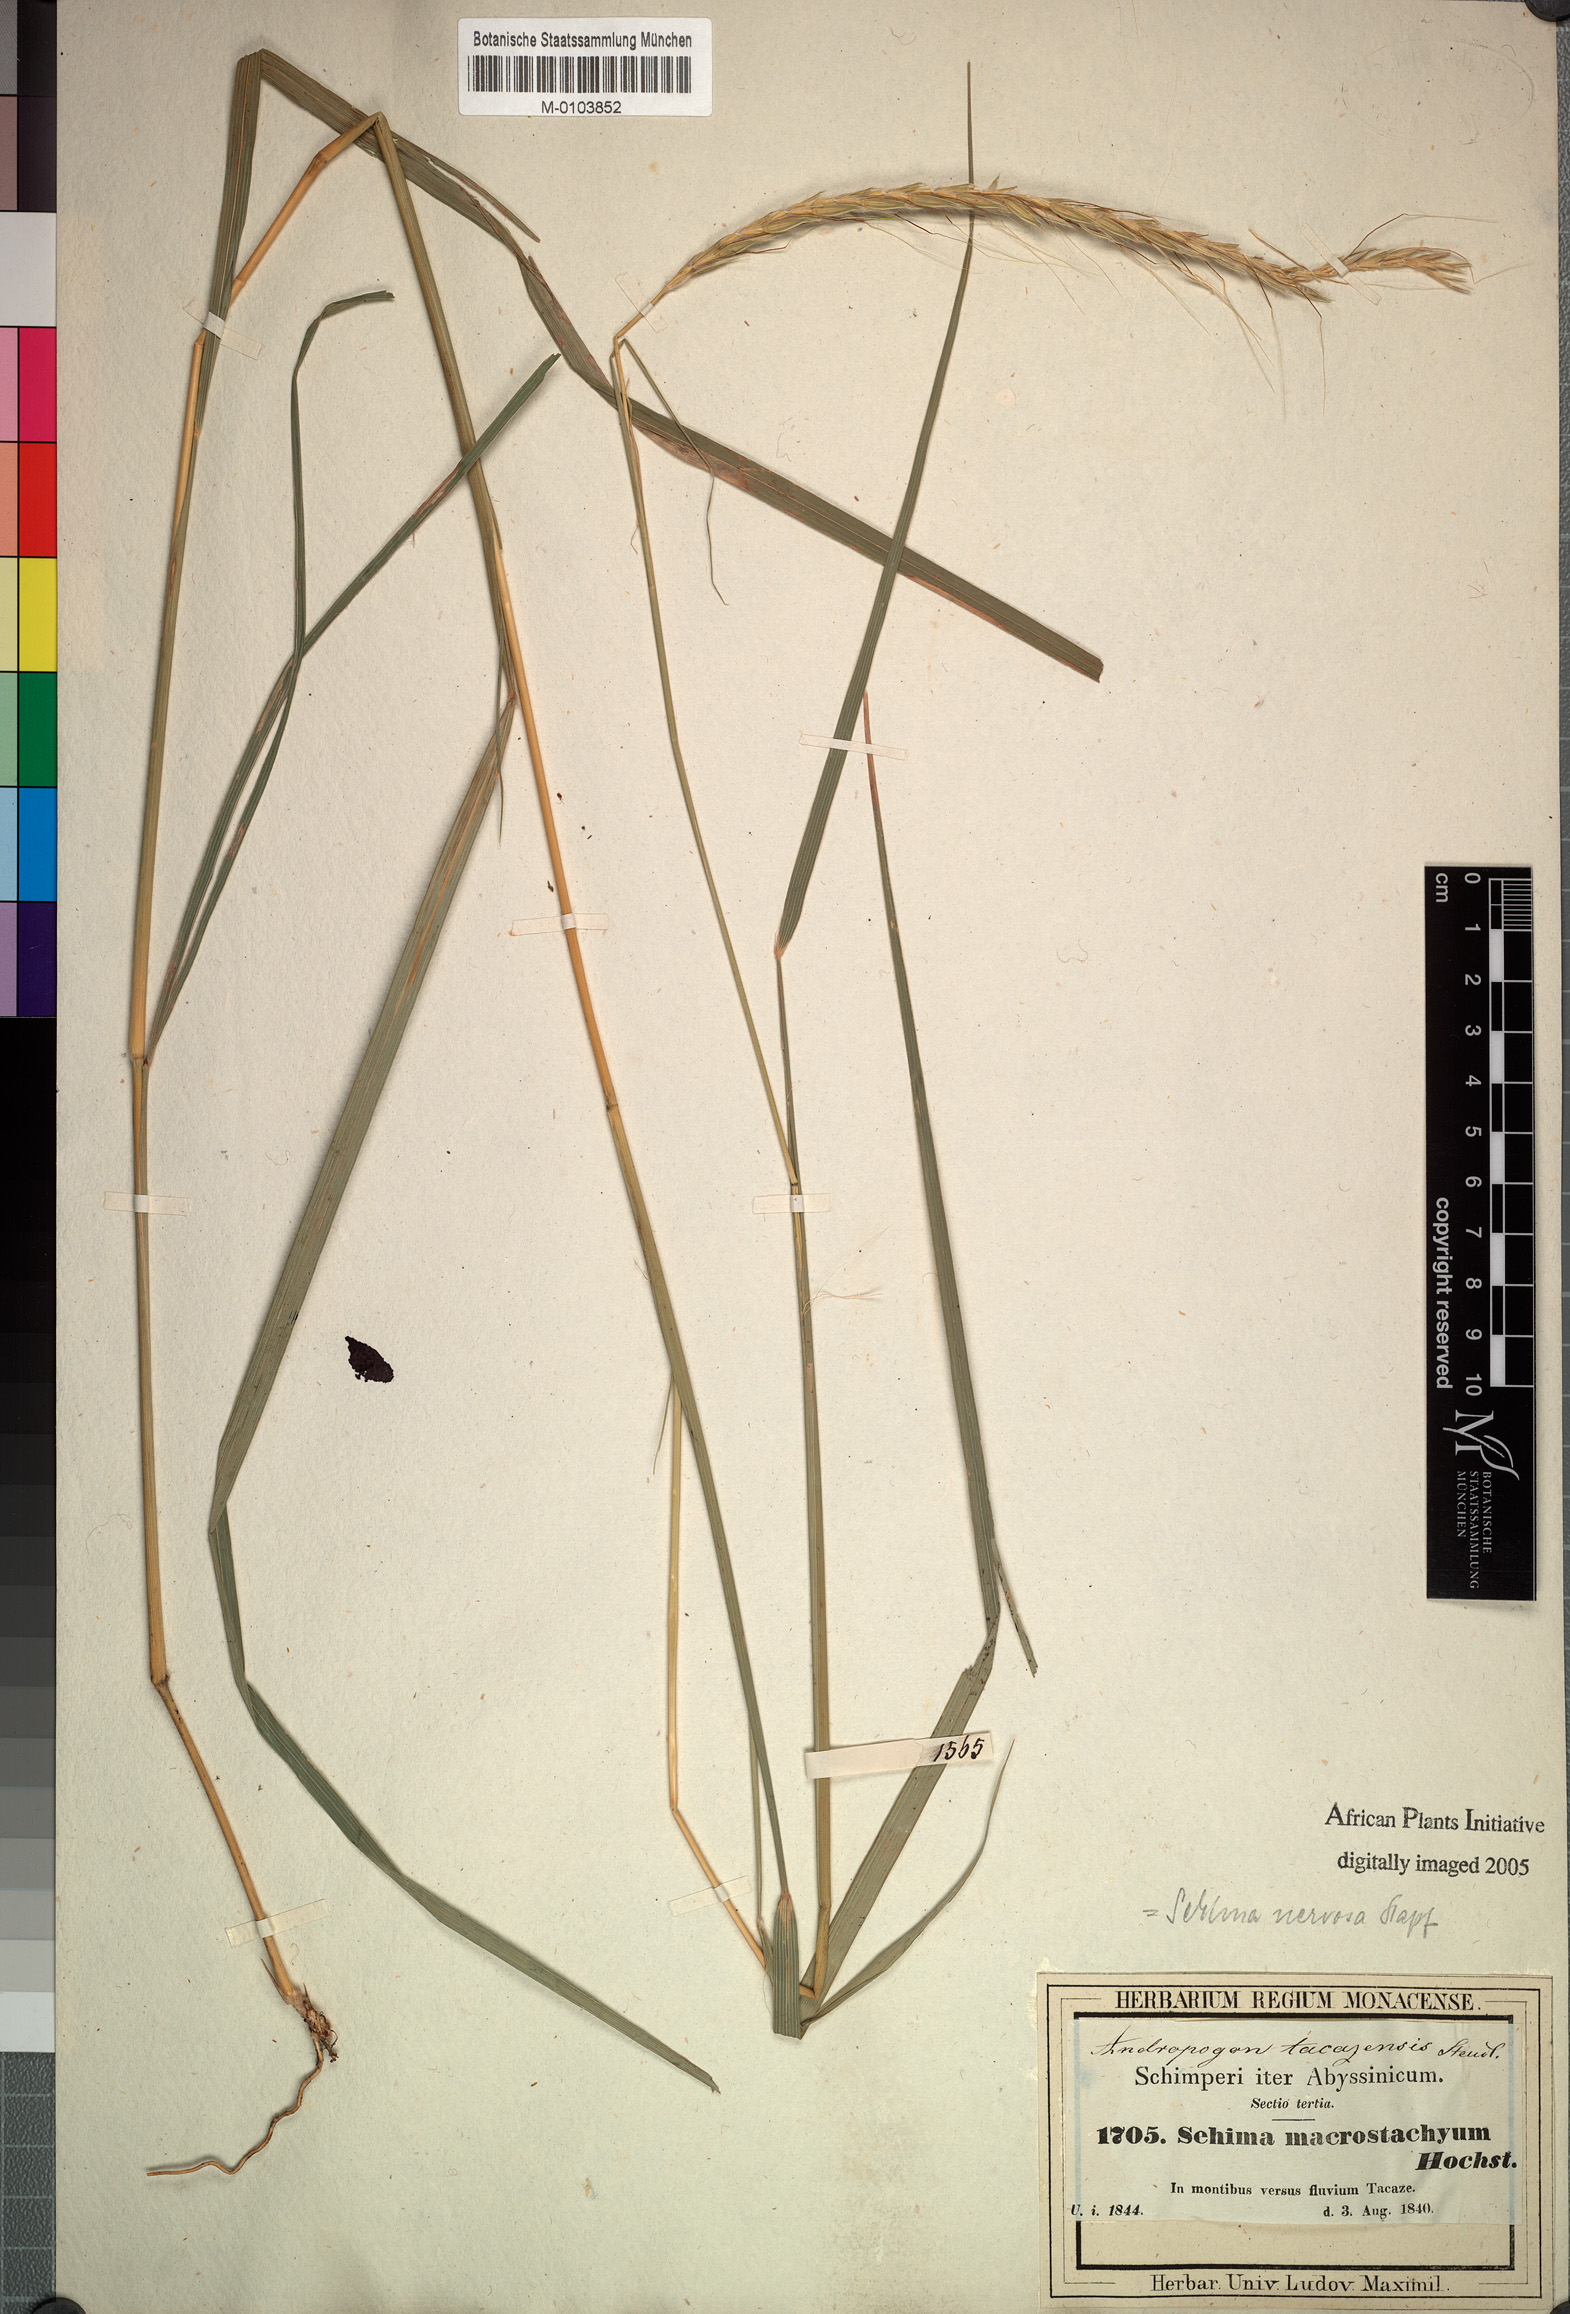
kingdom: Plantae
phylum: Tracheophyta
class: Liliopsida
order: Poales
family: Poaceae
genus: Sehima
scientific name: Sehima nervosa
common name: Rat-tail grass
